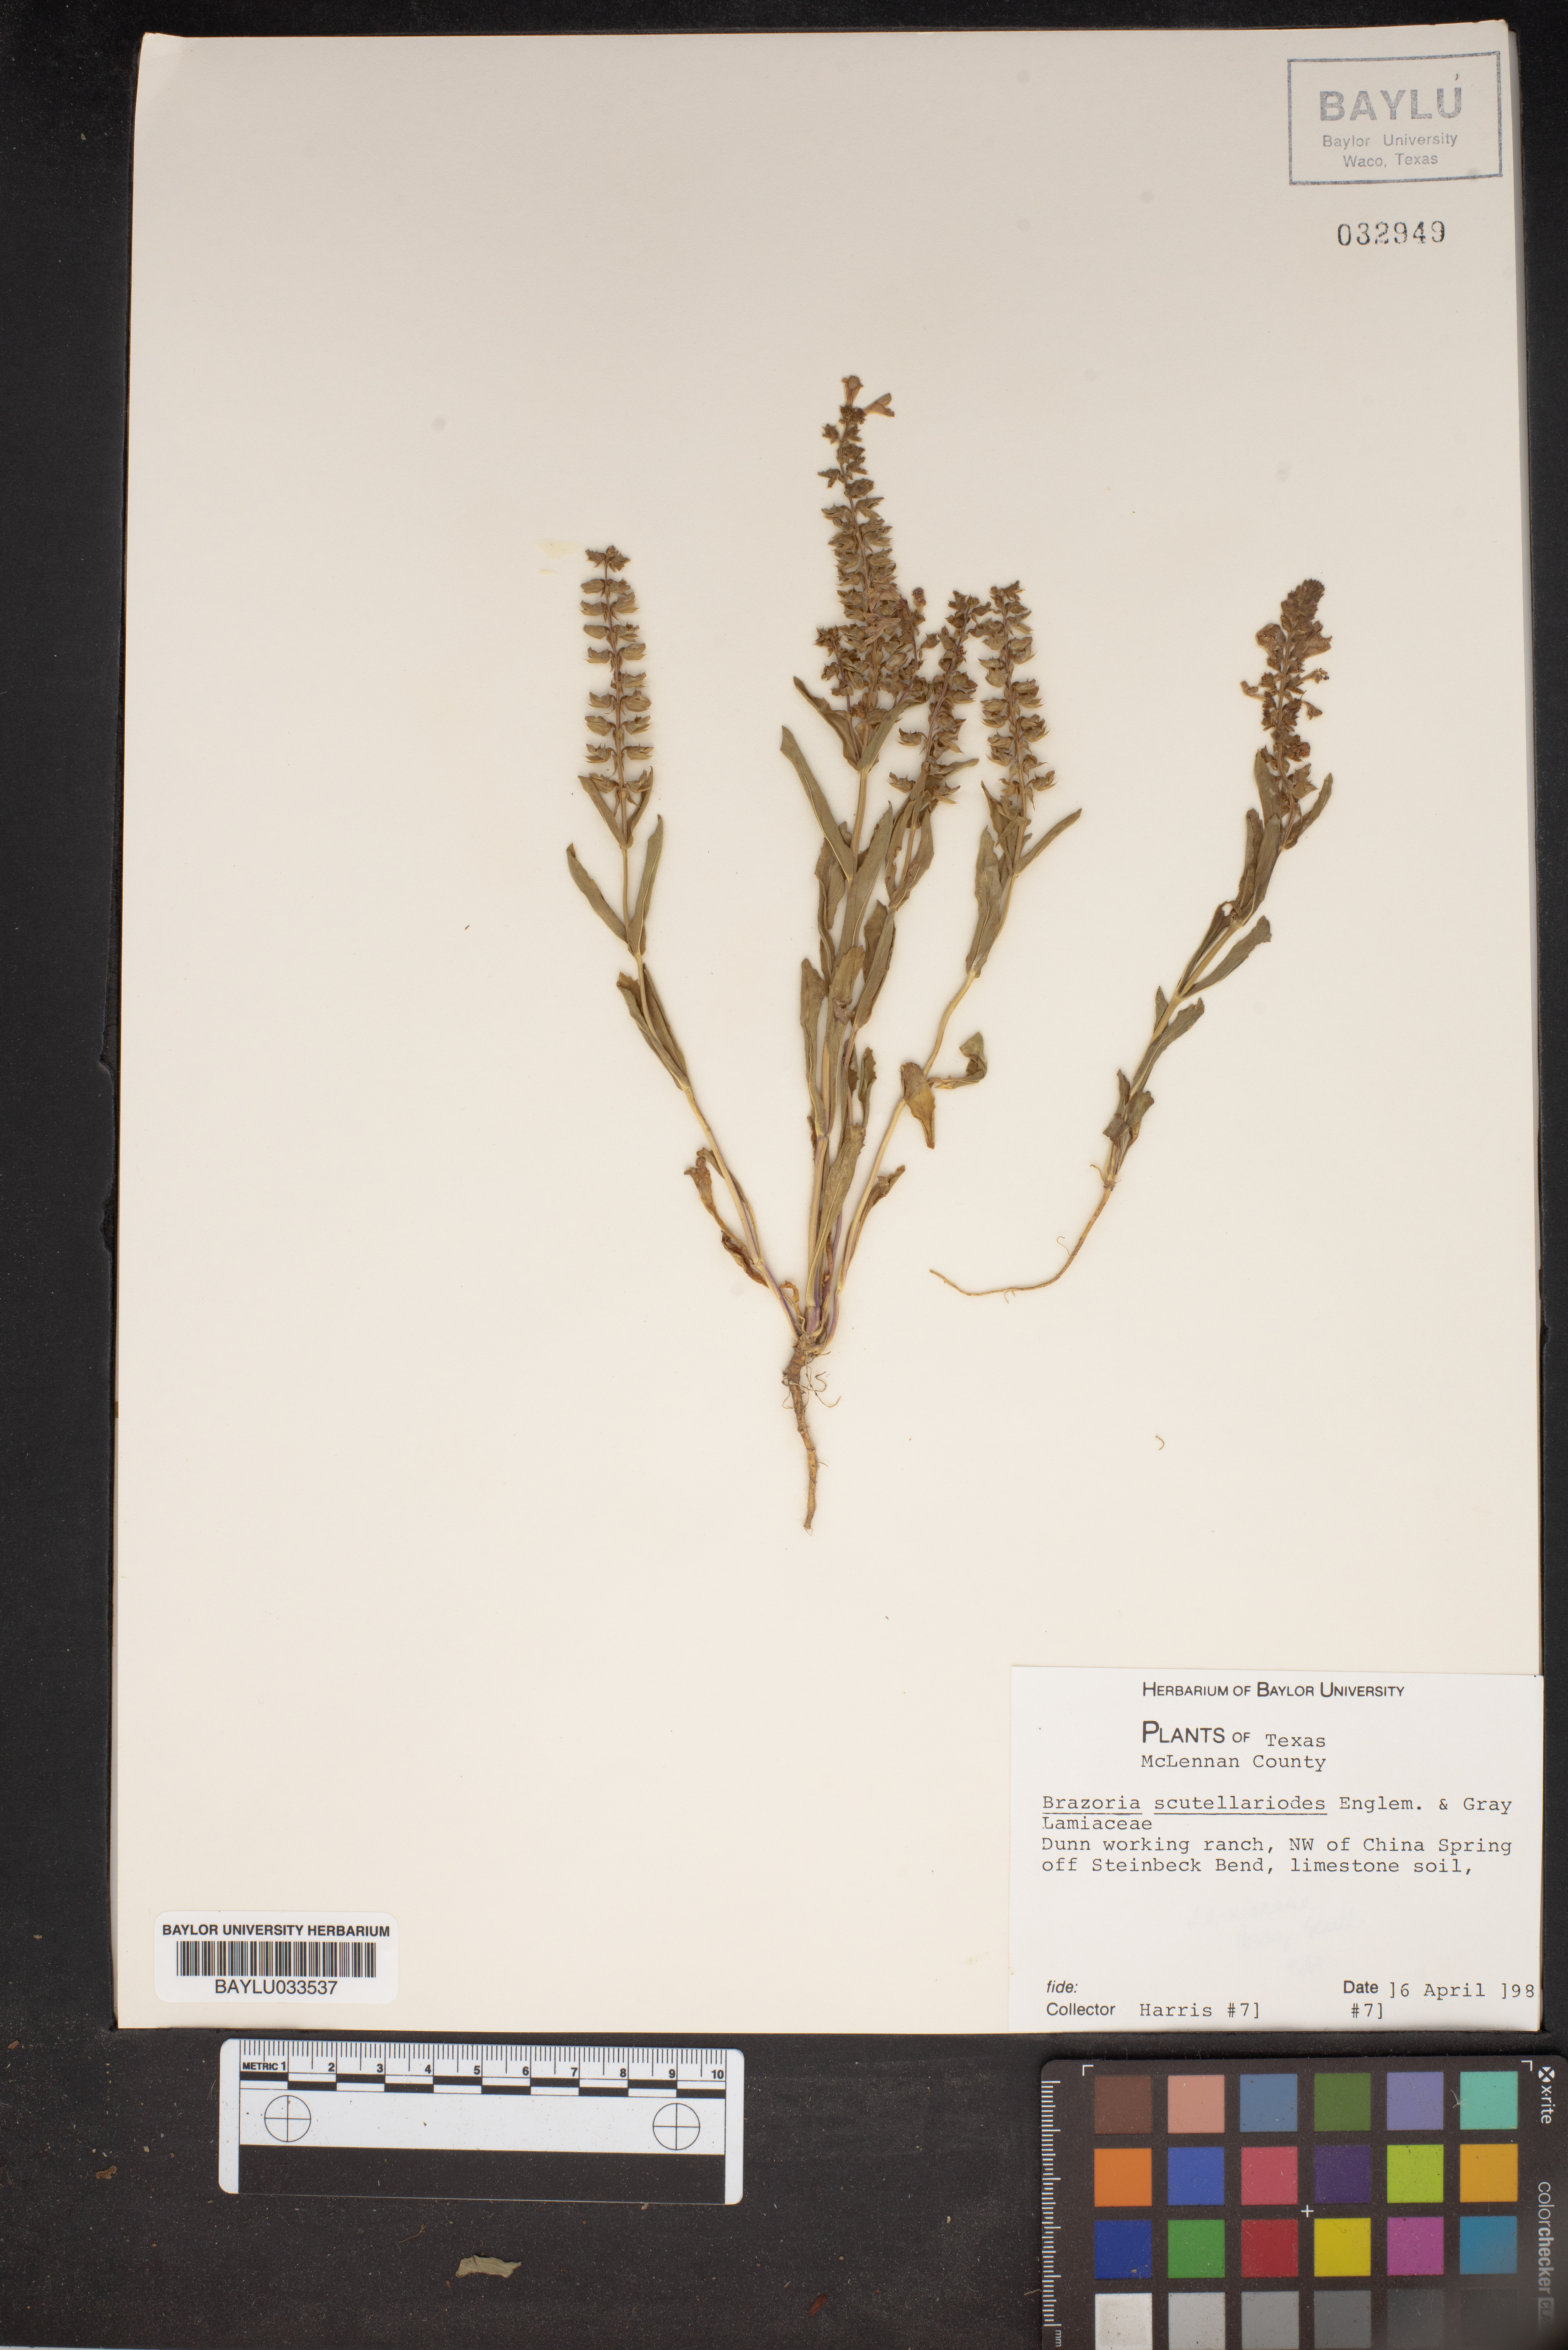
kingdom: Plantae
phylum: Tracheophyta
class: Magnoliopsida
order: Lamiales
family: Lamiaceae
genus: Warnockia
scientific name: Warnockia scutellarioides
